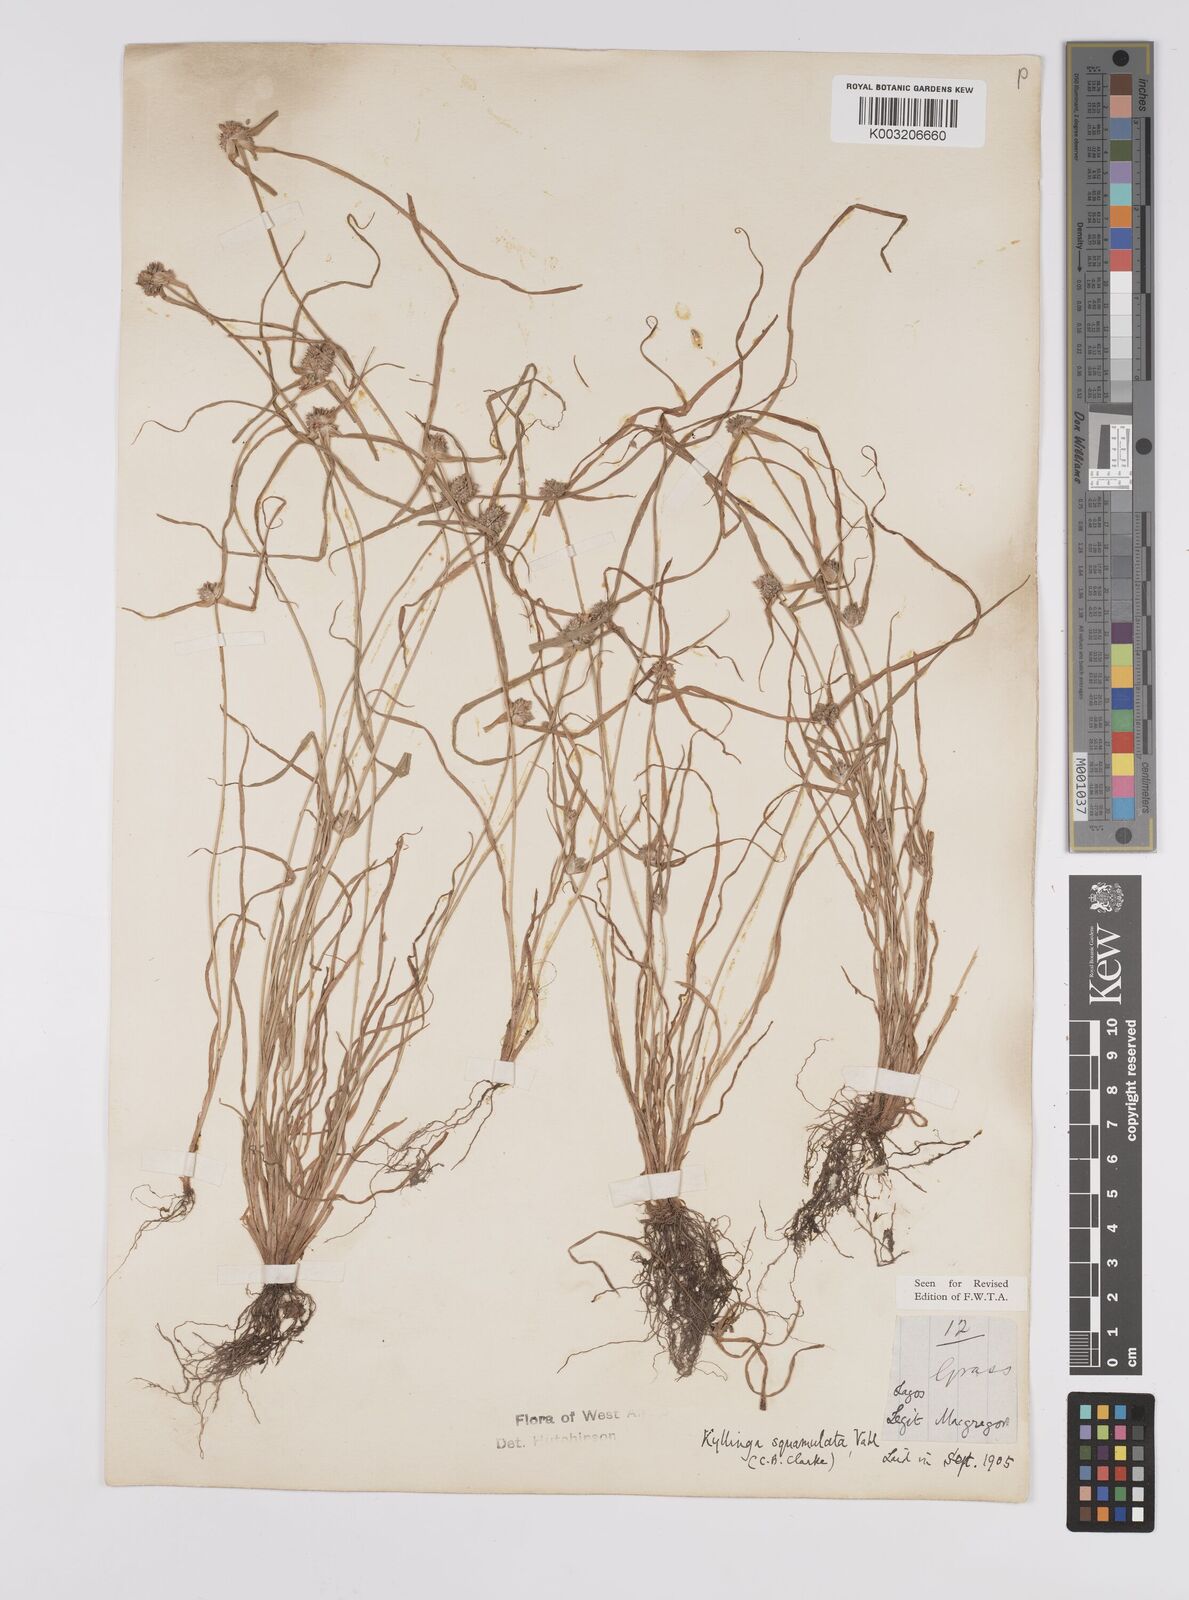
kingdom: Plantae
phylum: Tracheophyta
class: Liliopsida
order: Poales
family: Cyperaceae
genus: Cyperus
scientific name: Cyperus distans
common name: Slender cyperus
